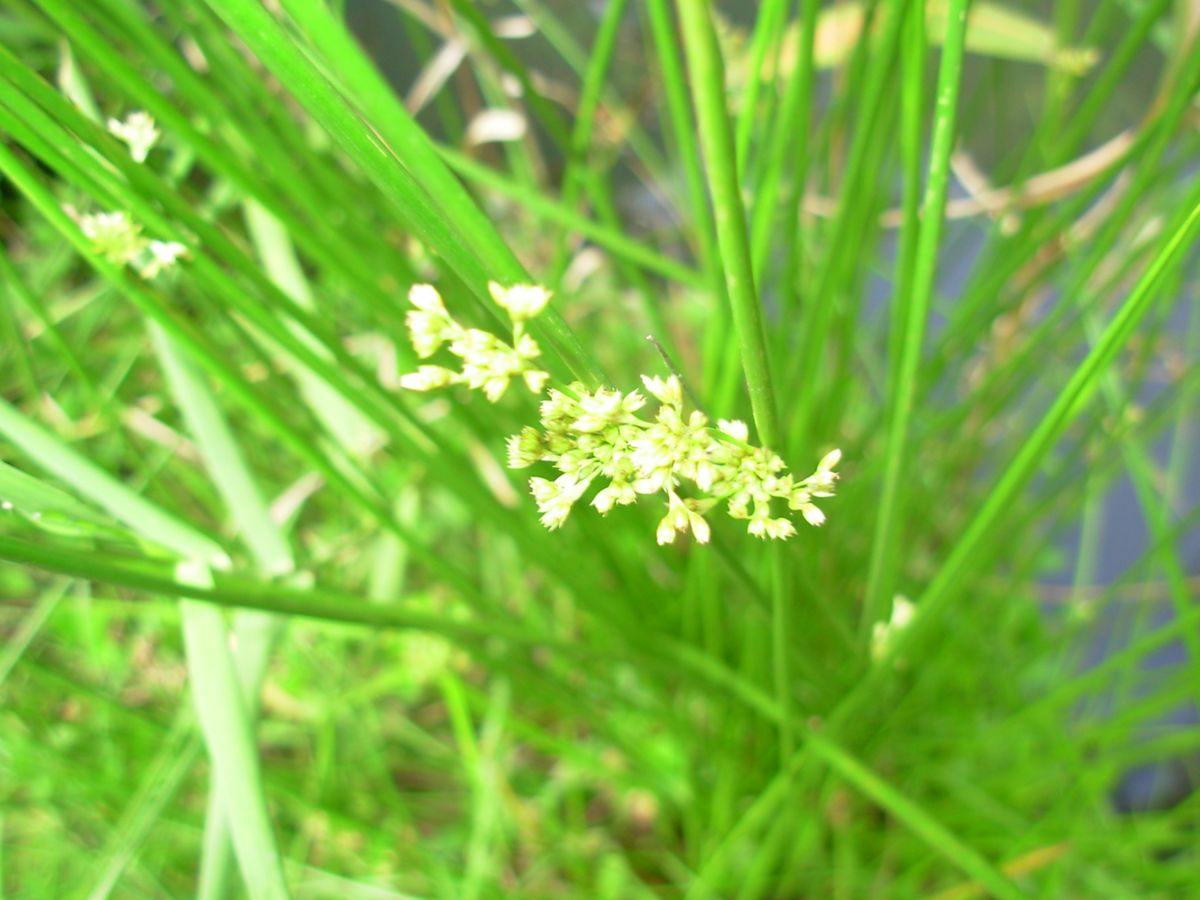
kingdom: Plantae
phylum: Tracheophyta
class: Liliopsida
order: Poales
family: Cyperaceae
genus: Schoenoplectus
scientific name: Schoenoplectus
